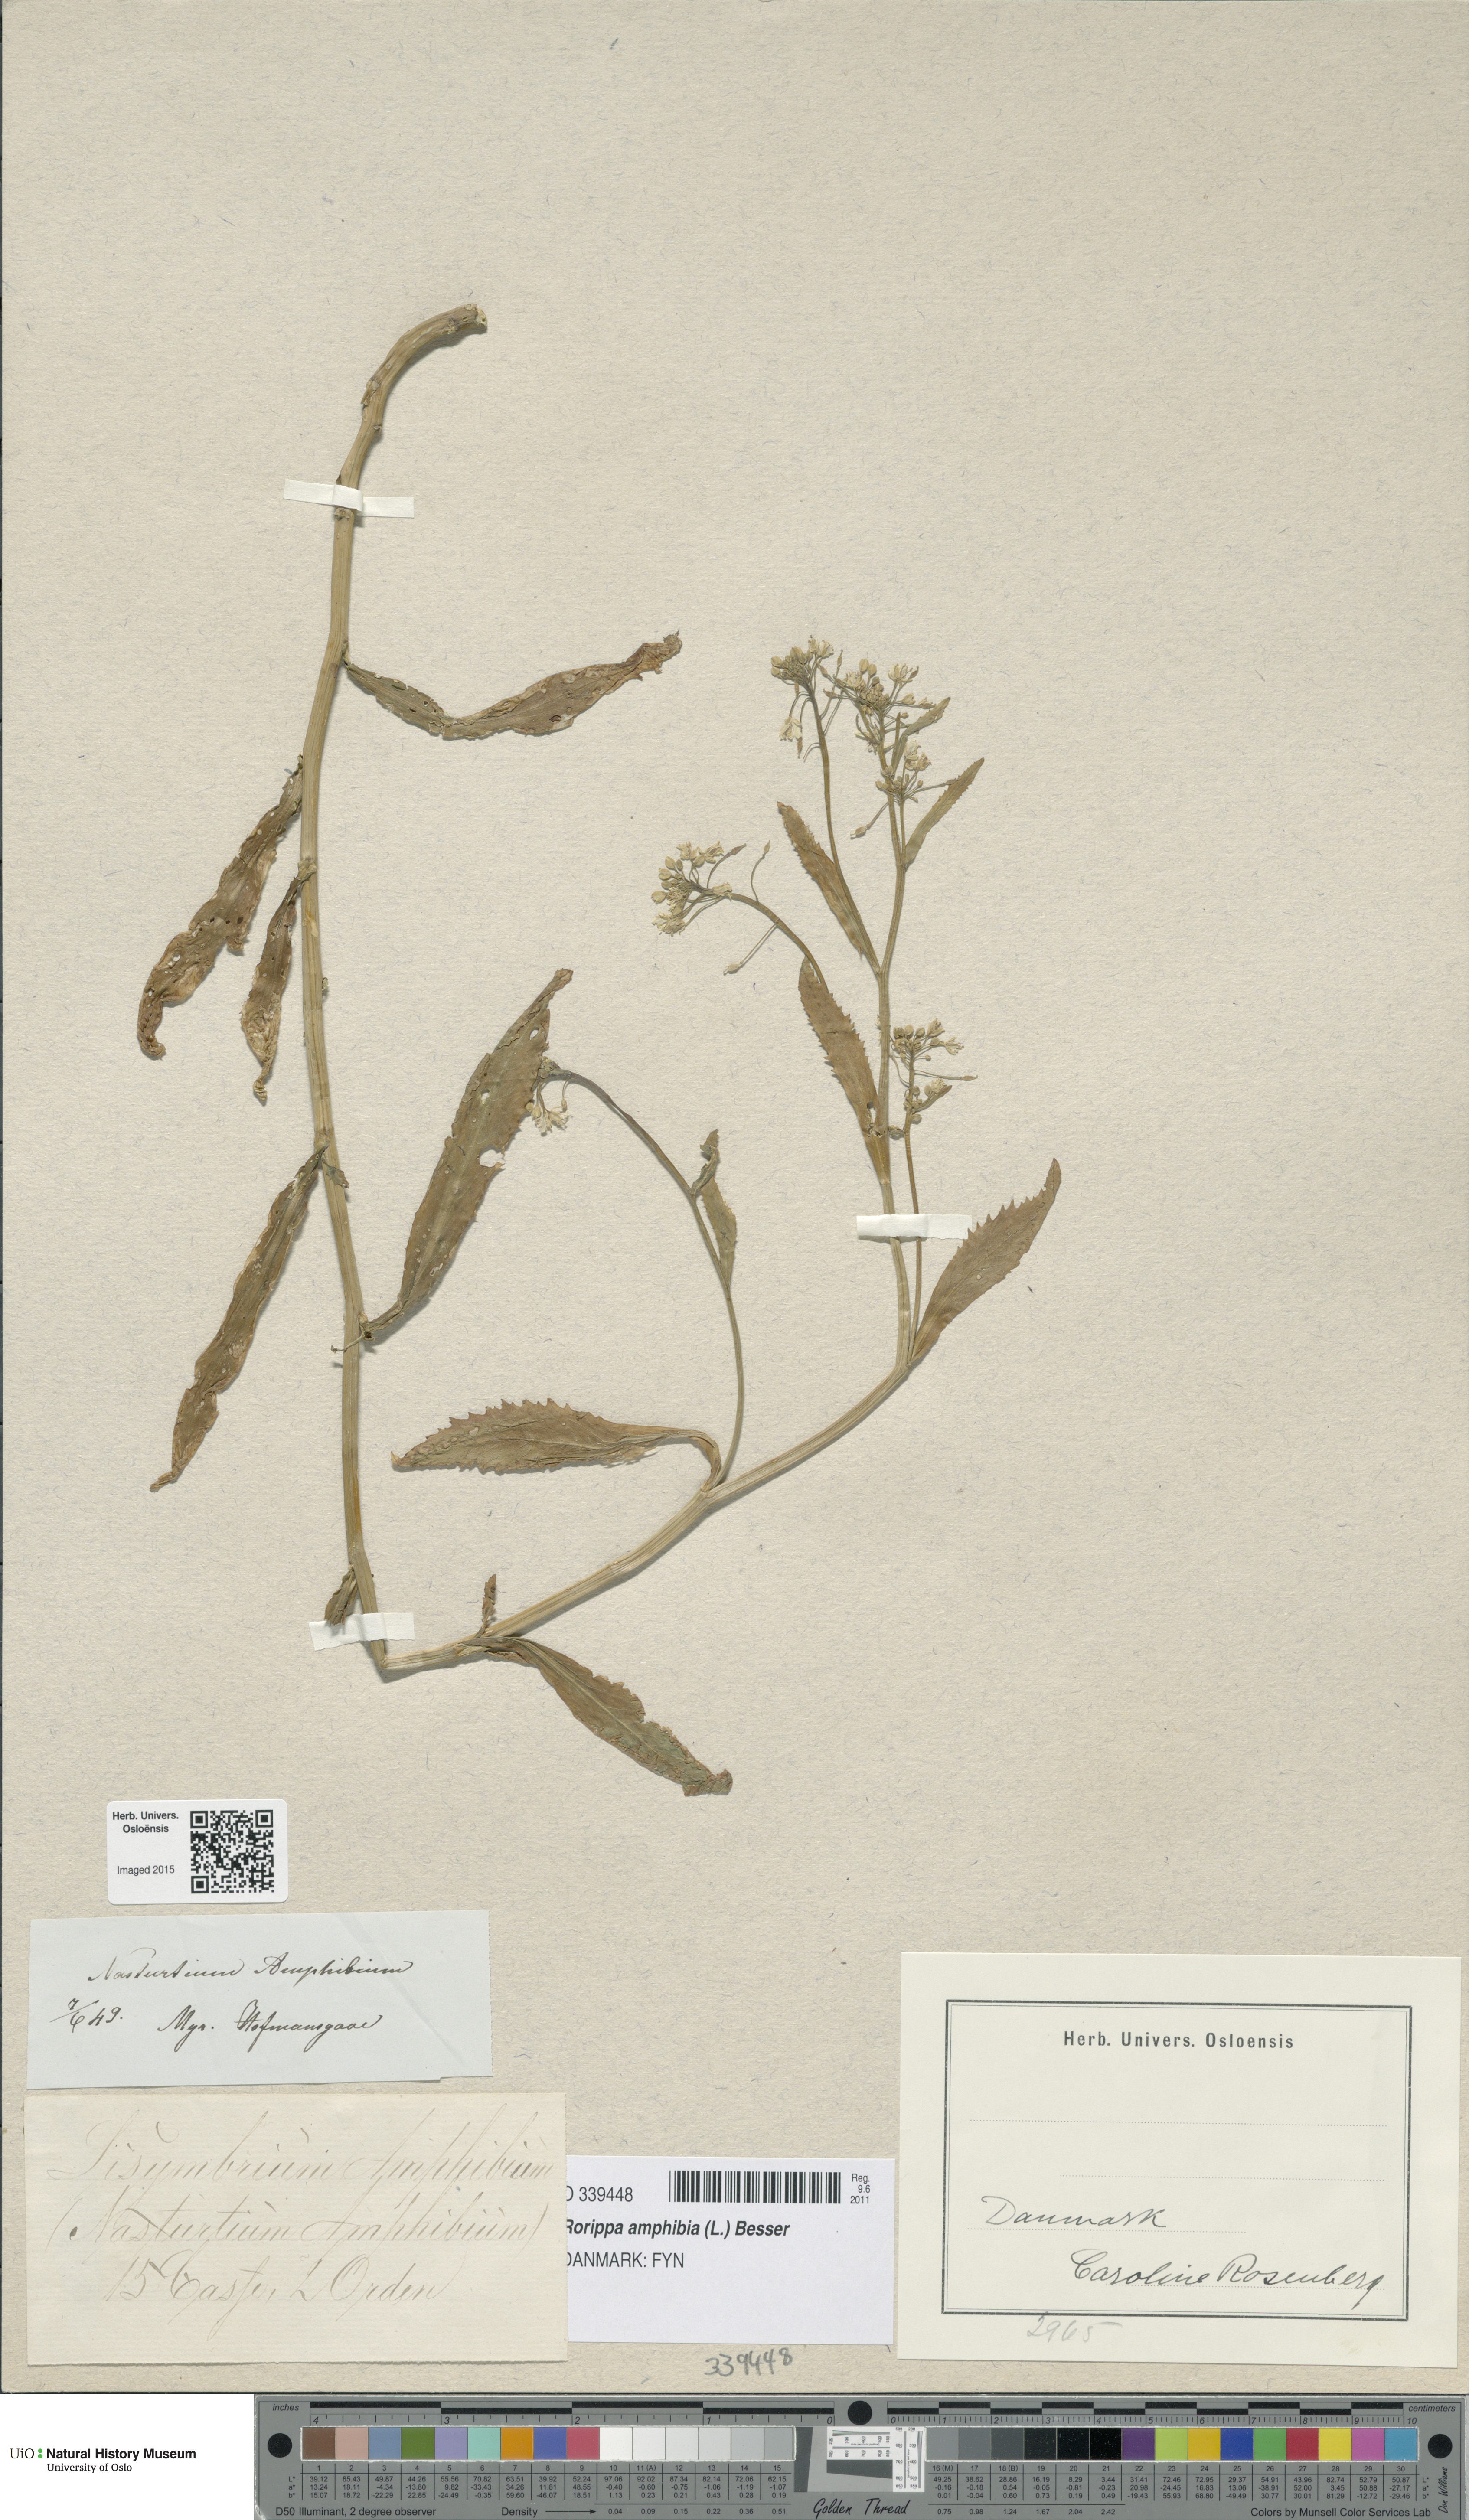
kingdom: Plantae
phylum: Tracheophyta
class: Magnoliopsida
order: Brassicales
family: Brassicaceae
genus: Rorippa
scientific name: Rorippa amphibia
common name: Great yellow-cress
